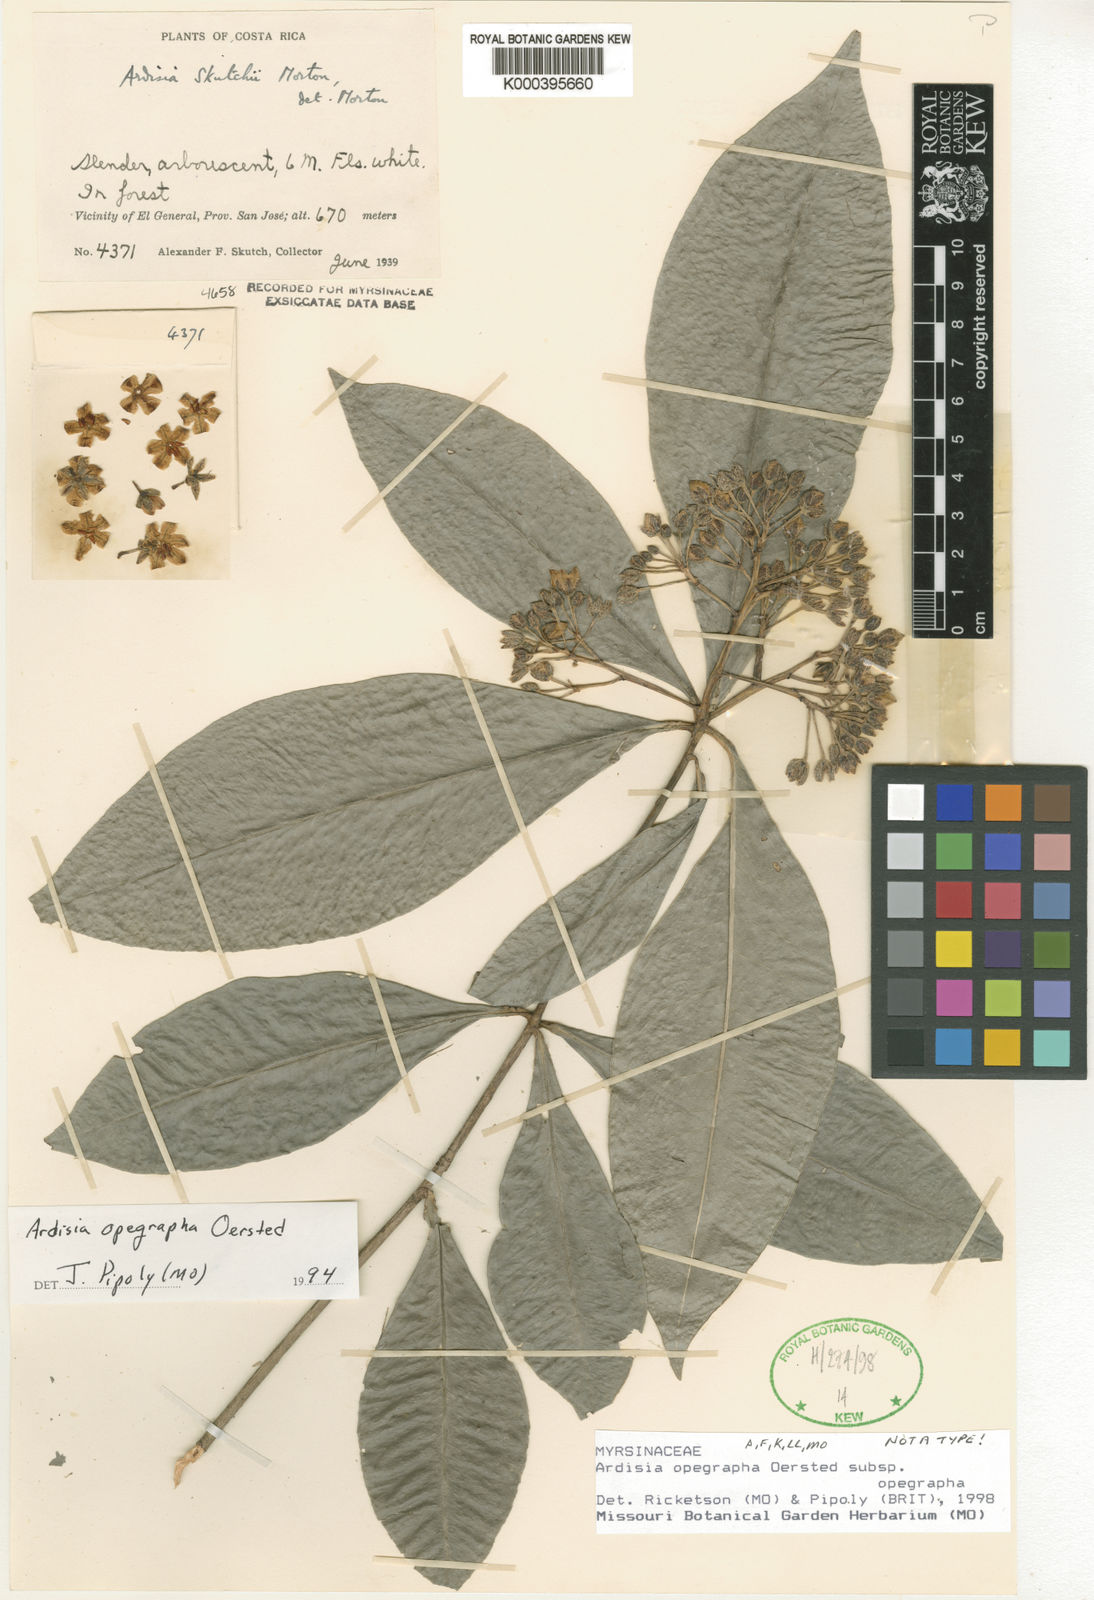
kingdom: Plantae
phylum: Tracheophyta
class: Magnoliopsida
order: Ericales
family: Primulaceae
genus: Ardisia
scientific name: Ardisia opegrapha
